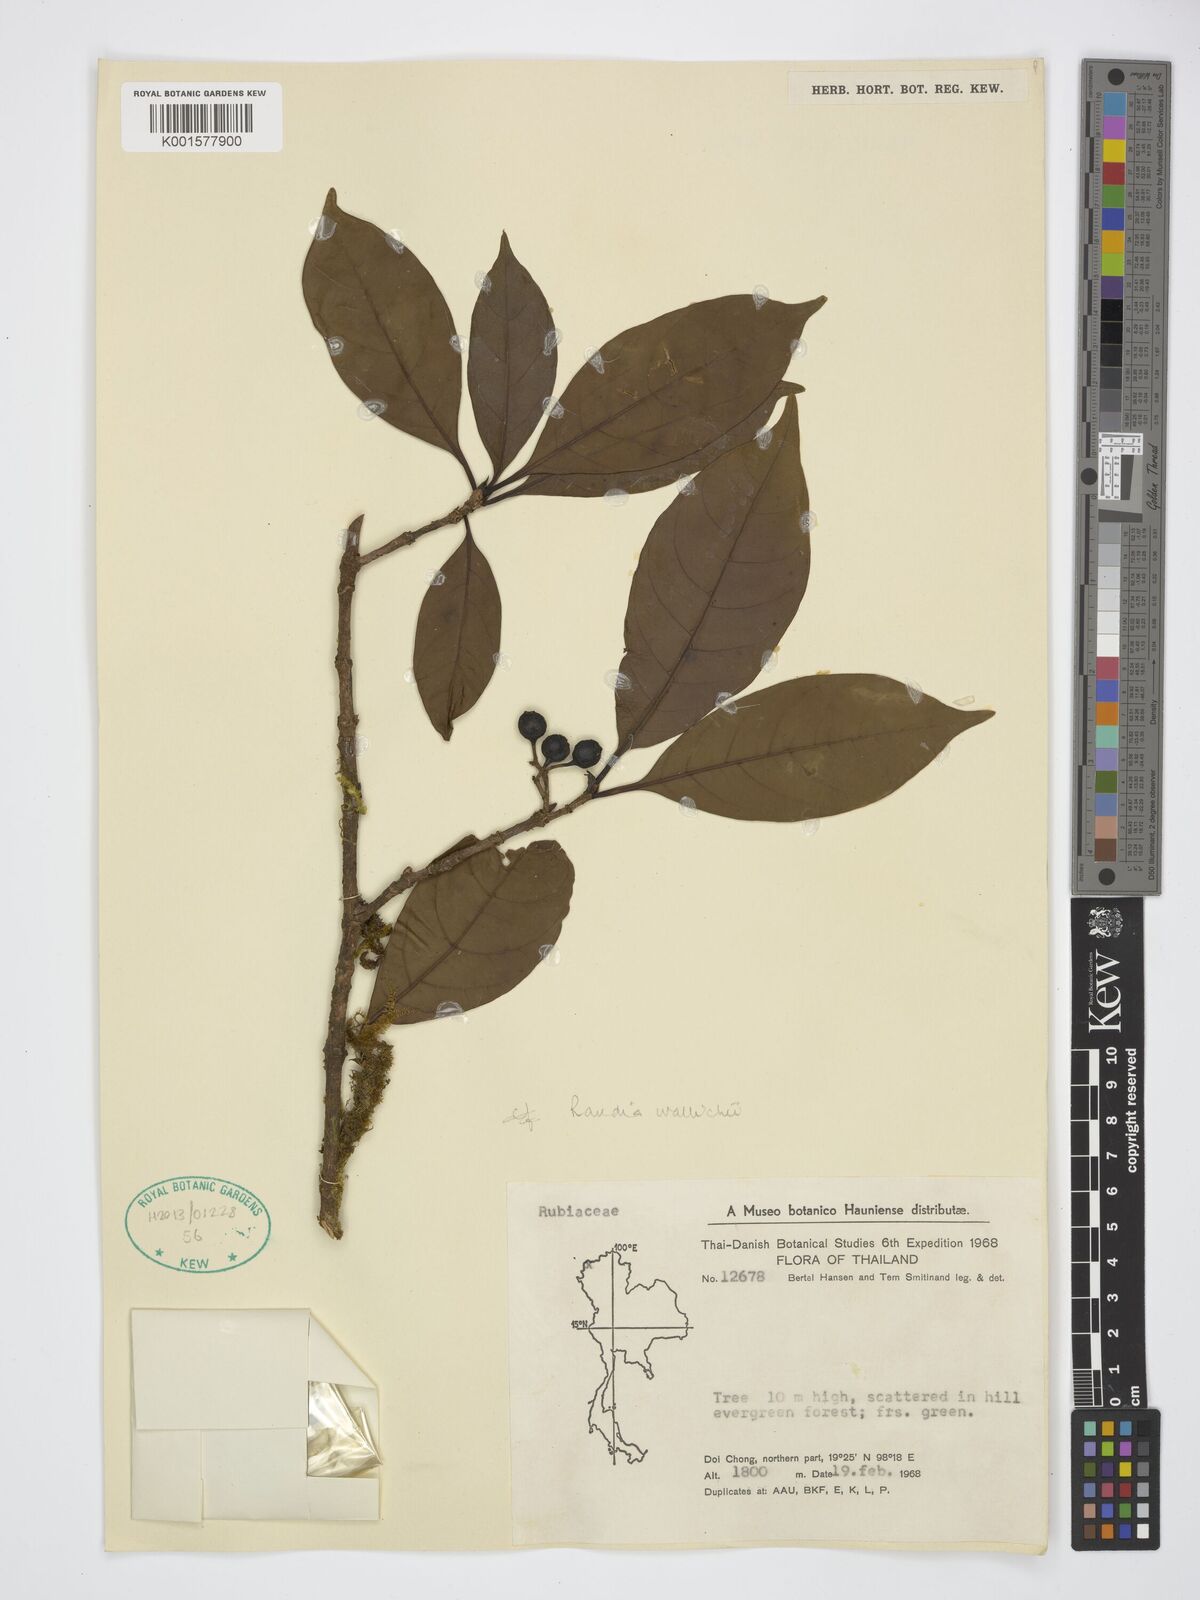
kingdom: Plantae
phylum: Tracheophyta
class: Magnoliopsida
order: Gentianales
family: Rubiaceae
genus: Tarennoidea
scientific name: Tarennoidea wallichii
